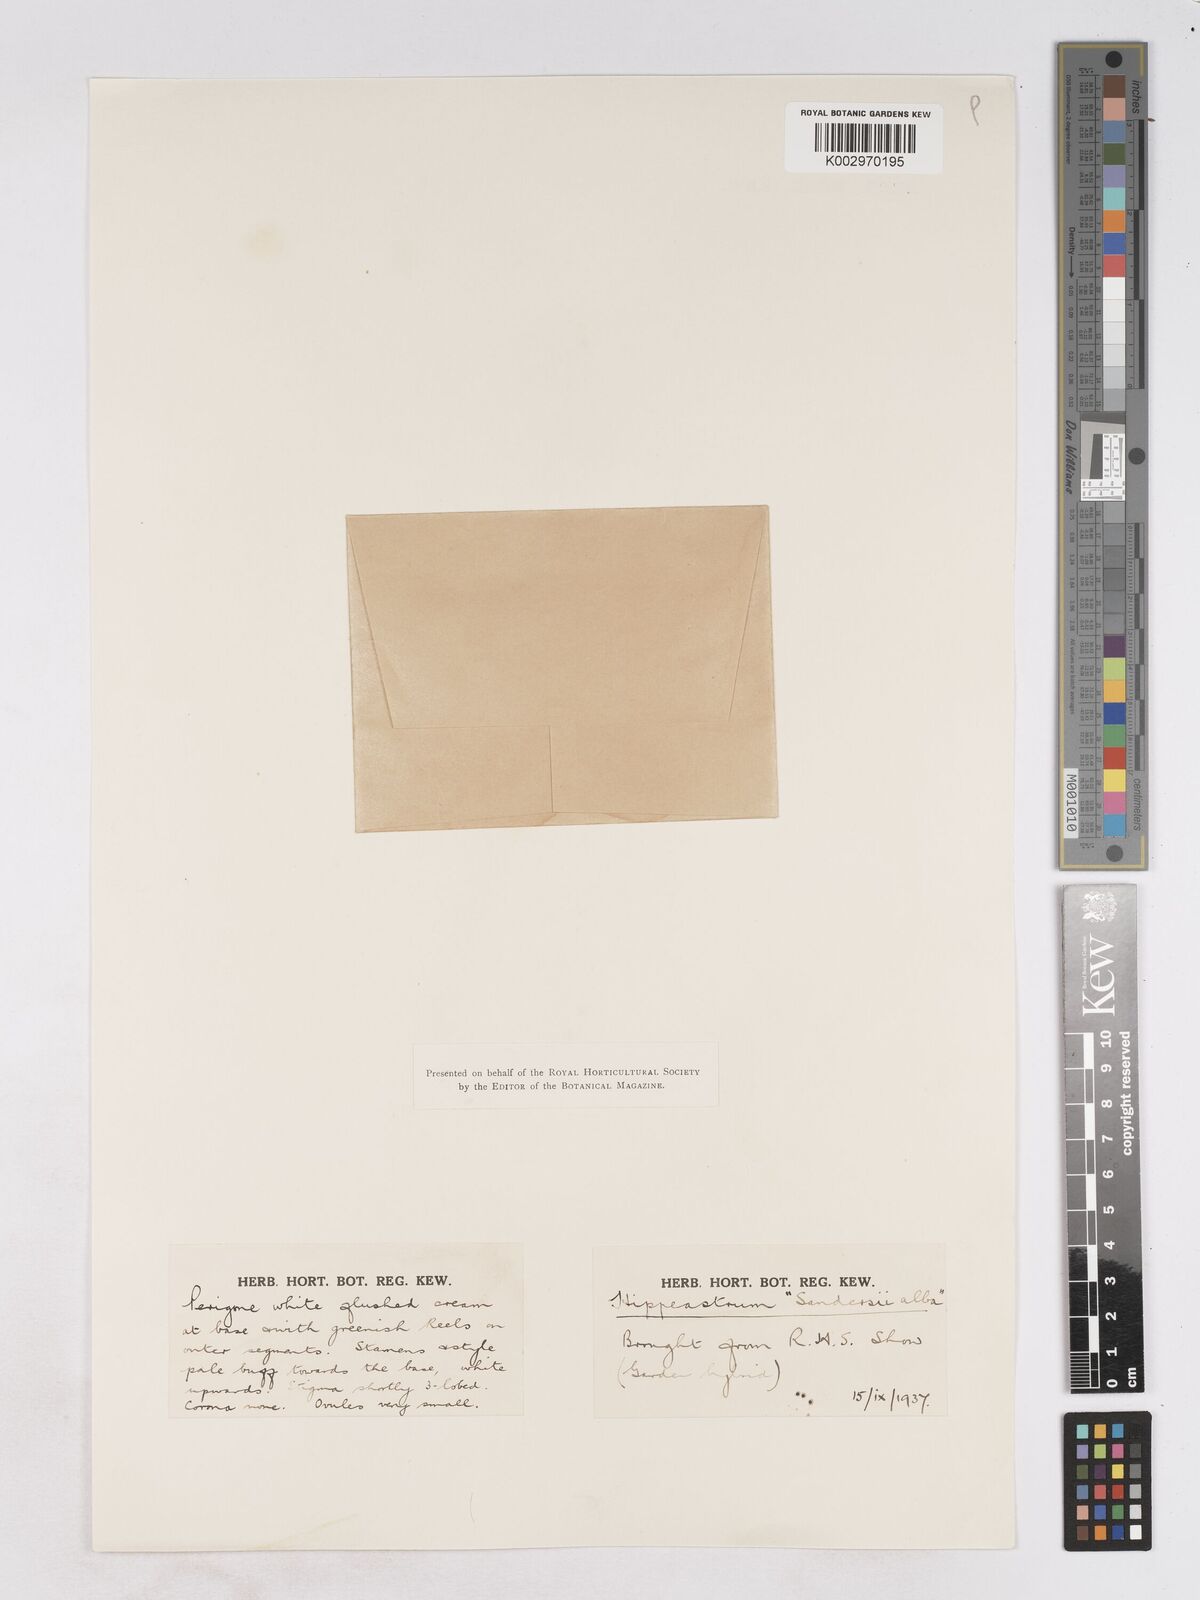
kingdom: Plantae
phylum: Tracheophyta
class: Liliopsida
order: Asparagales
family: Amaryllidaceae
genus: Hippeastrum
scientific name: Hippeastrum
